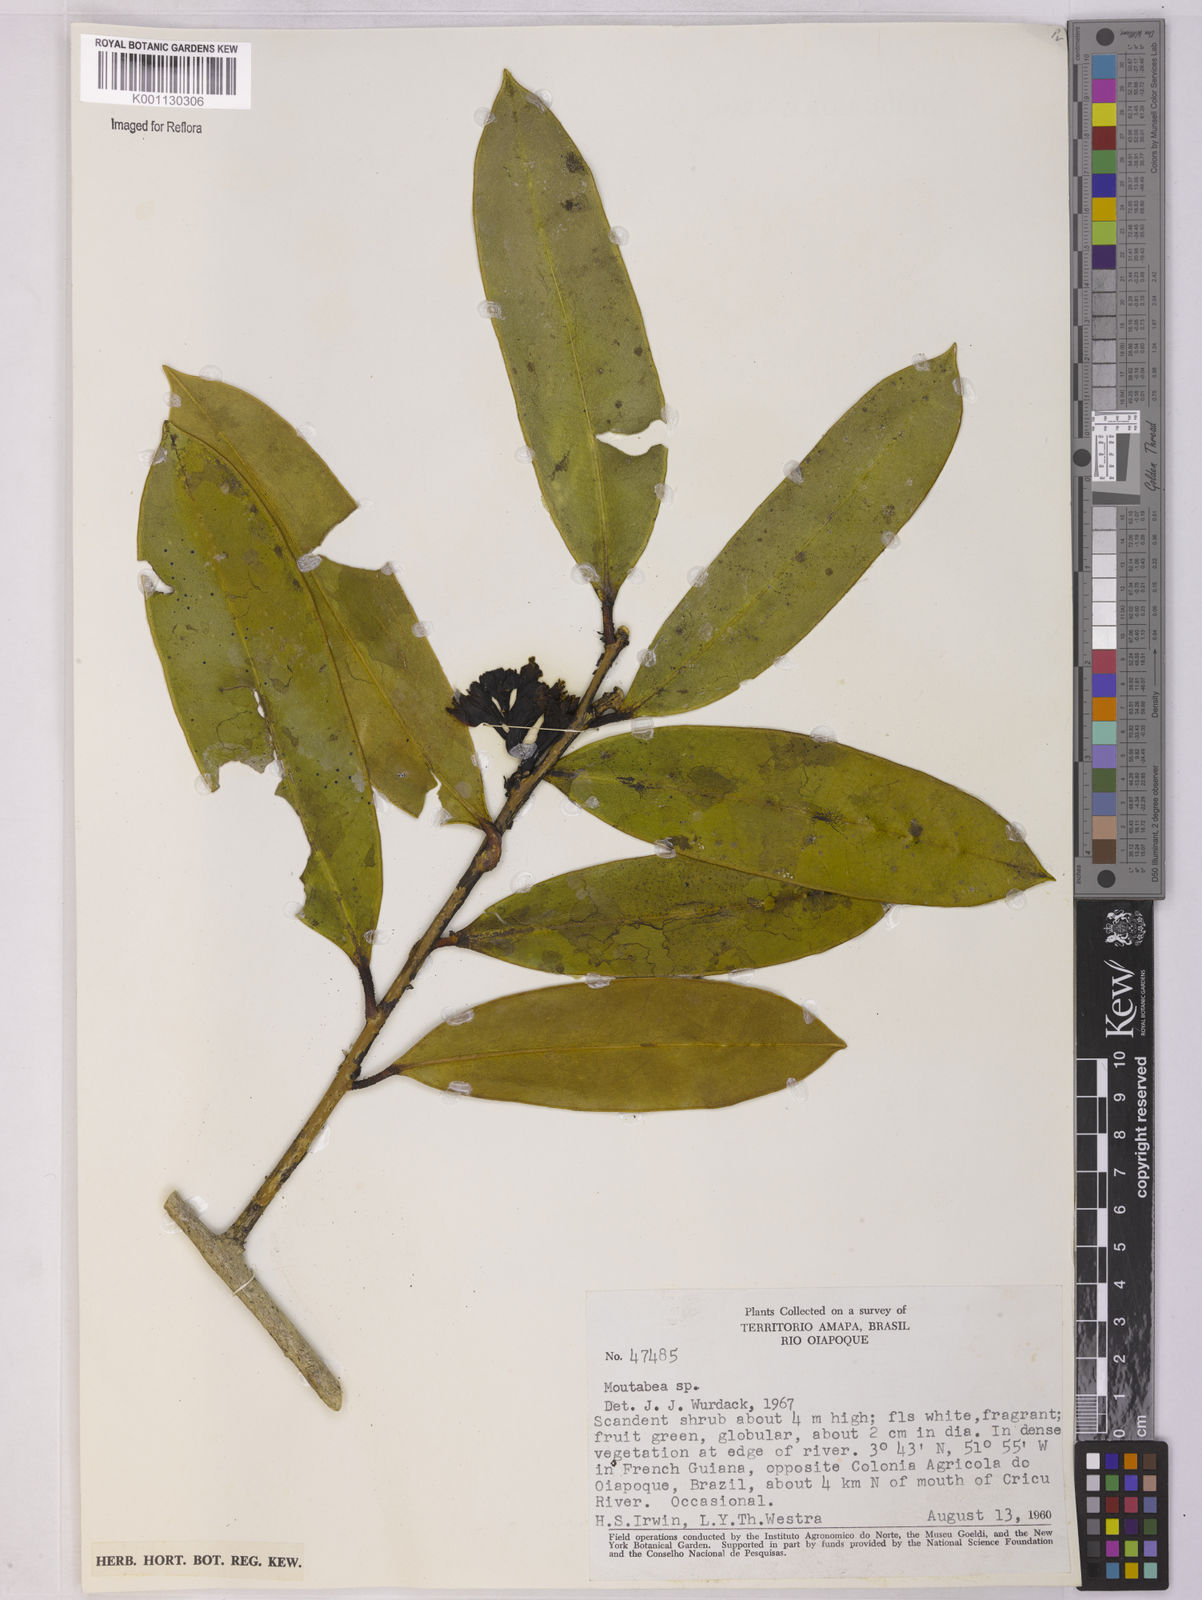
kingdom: Plantae
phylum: Tracheophyta
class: Magnoliopsida
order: Fabales
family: Polygalaceae
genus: Moutabea
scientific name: Moutabea
